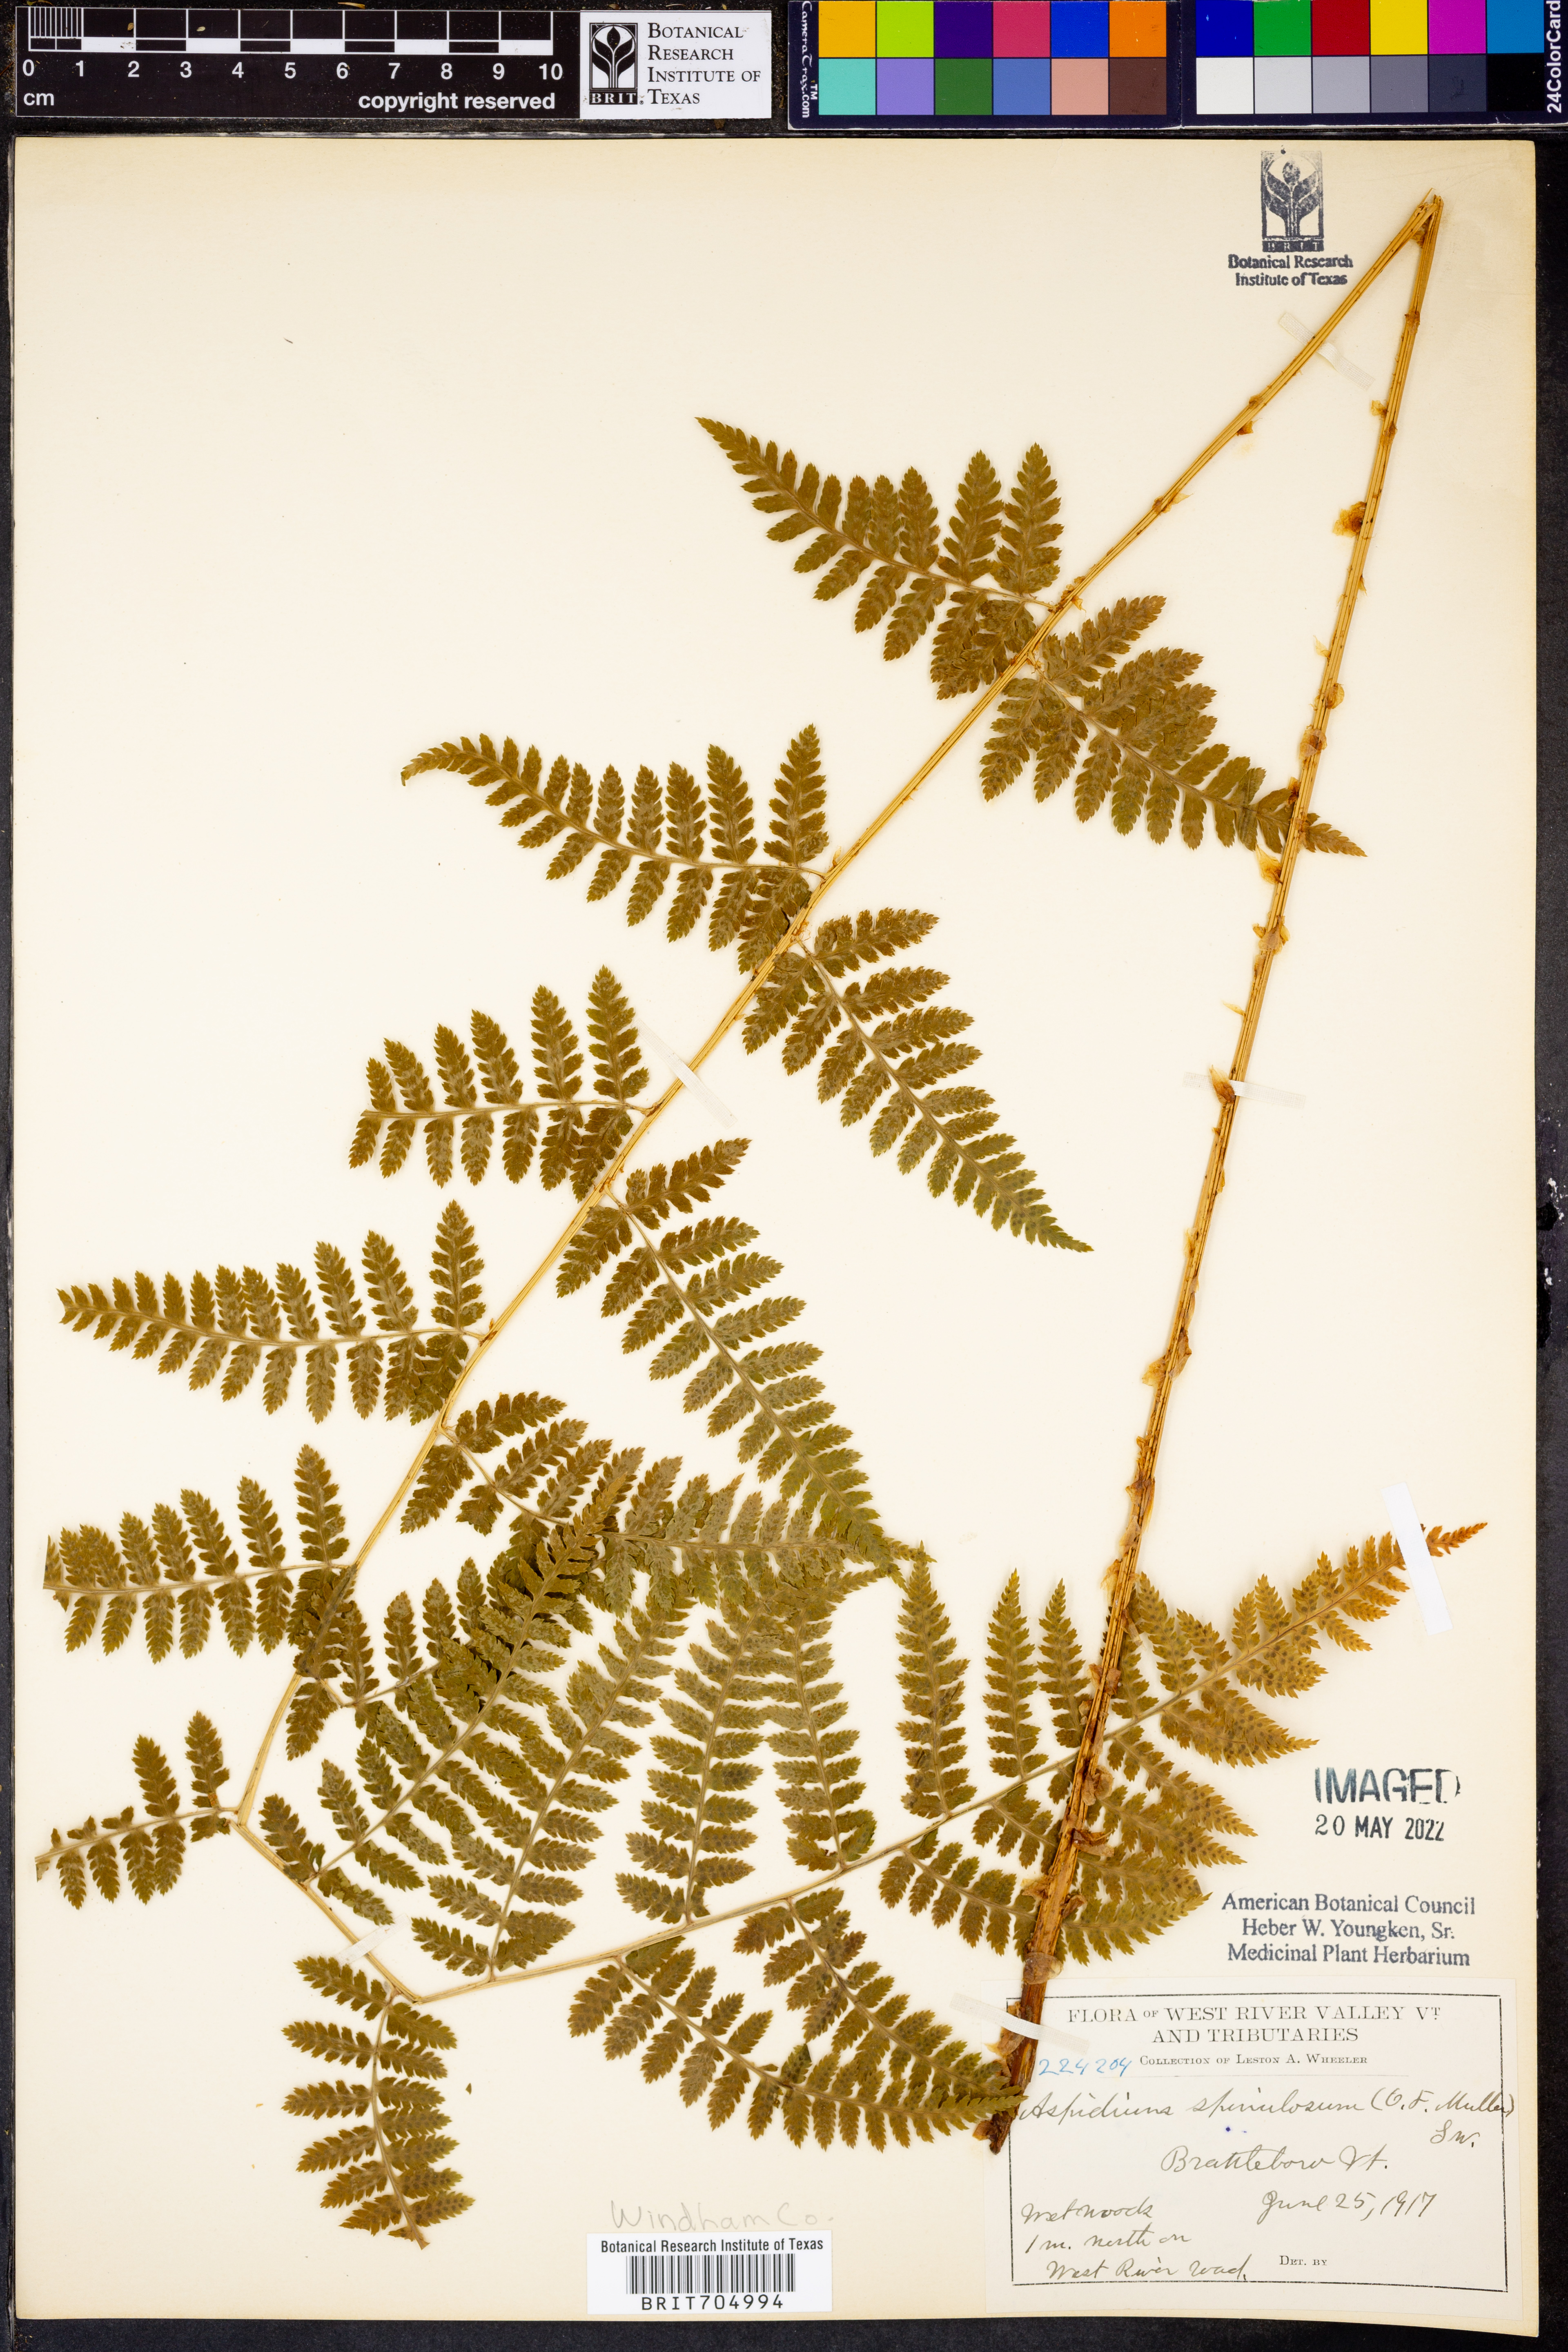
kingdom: Plantae
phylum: Tracheophyta
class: Polypodiopsida
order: Polypodiales
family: Dryopteridaceae
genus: Dryopteris
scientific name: Dryopteris
